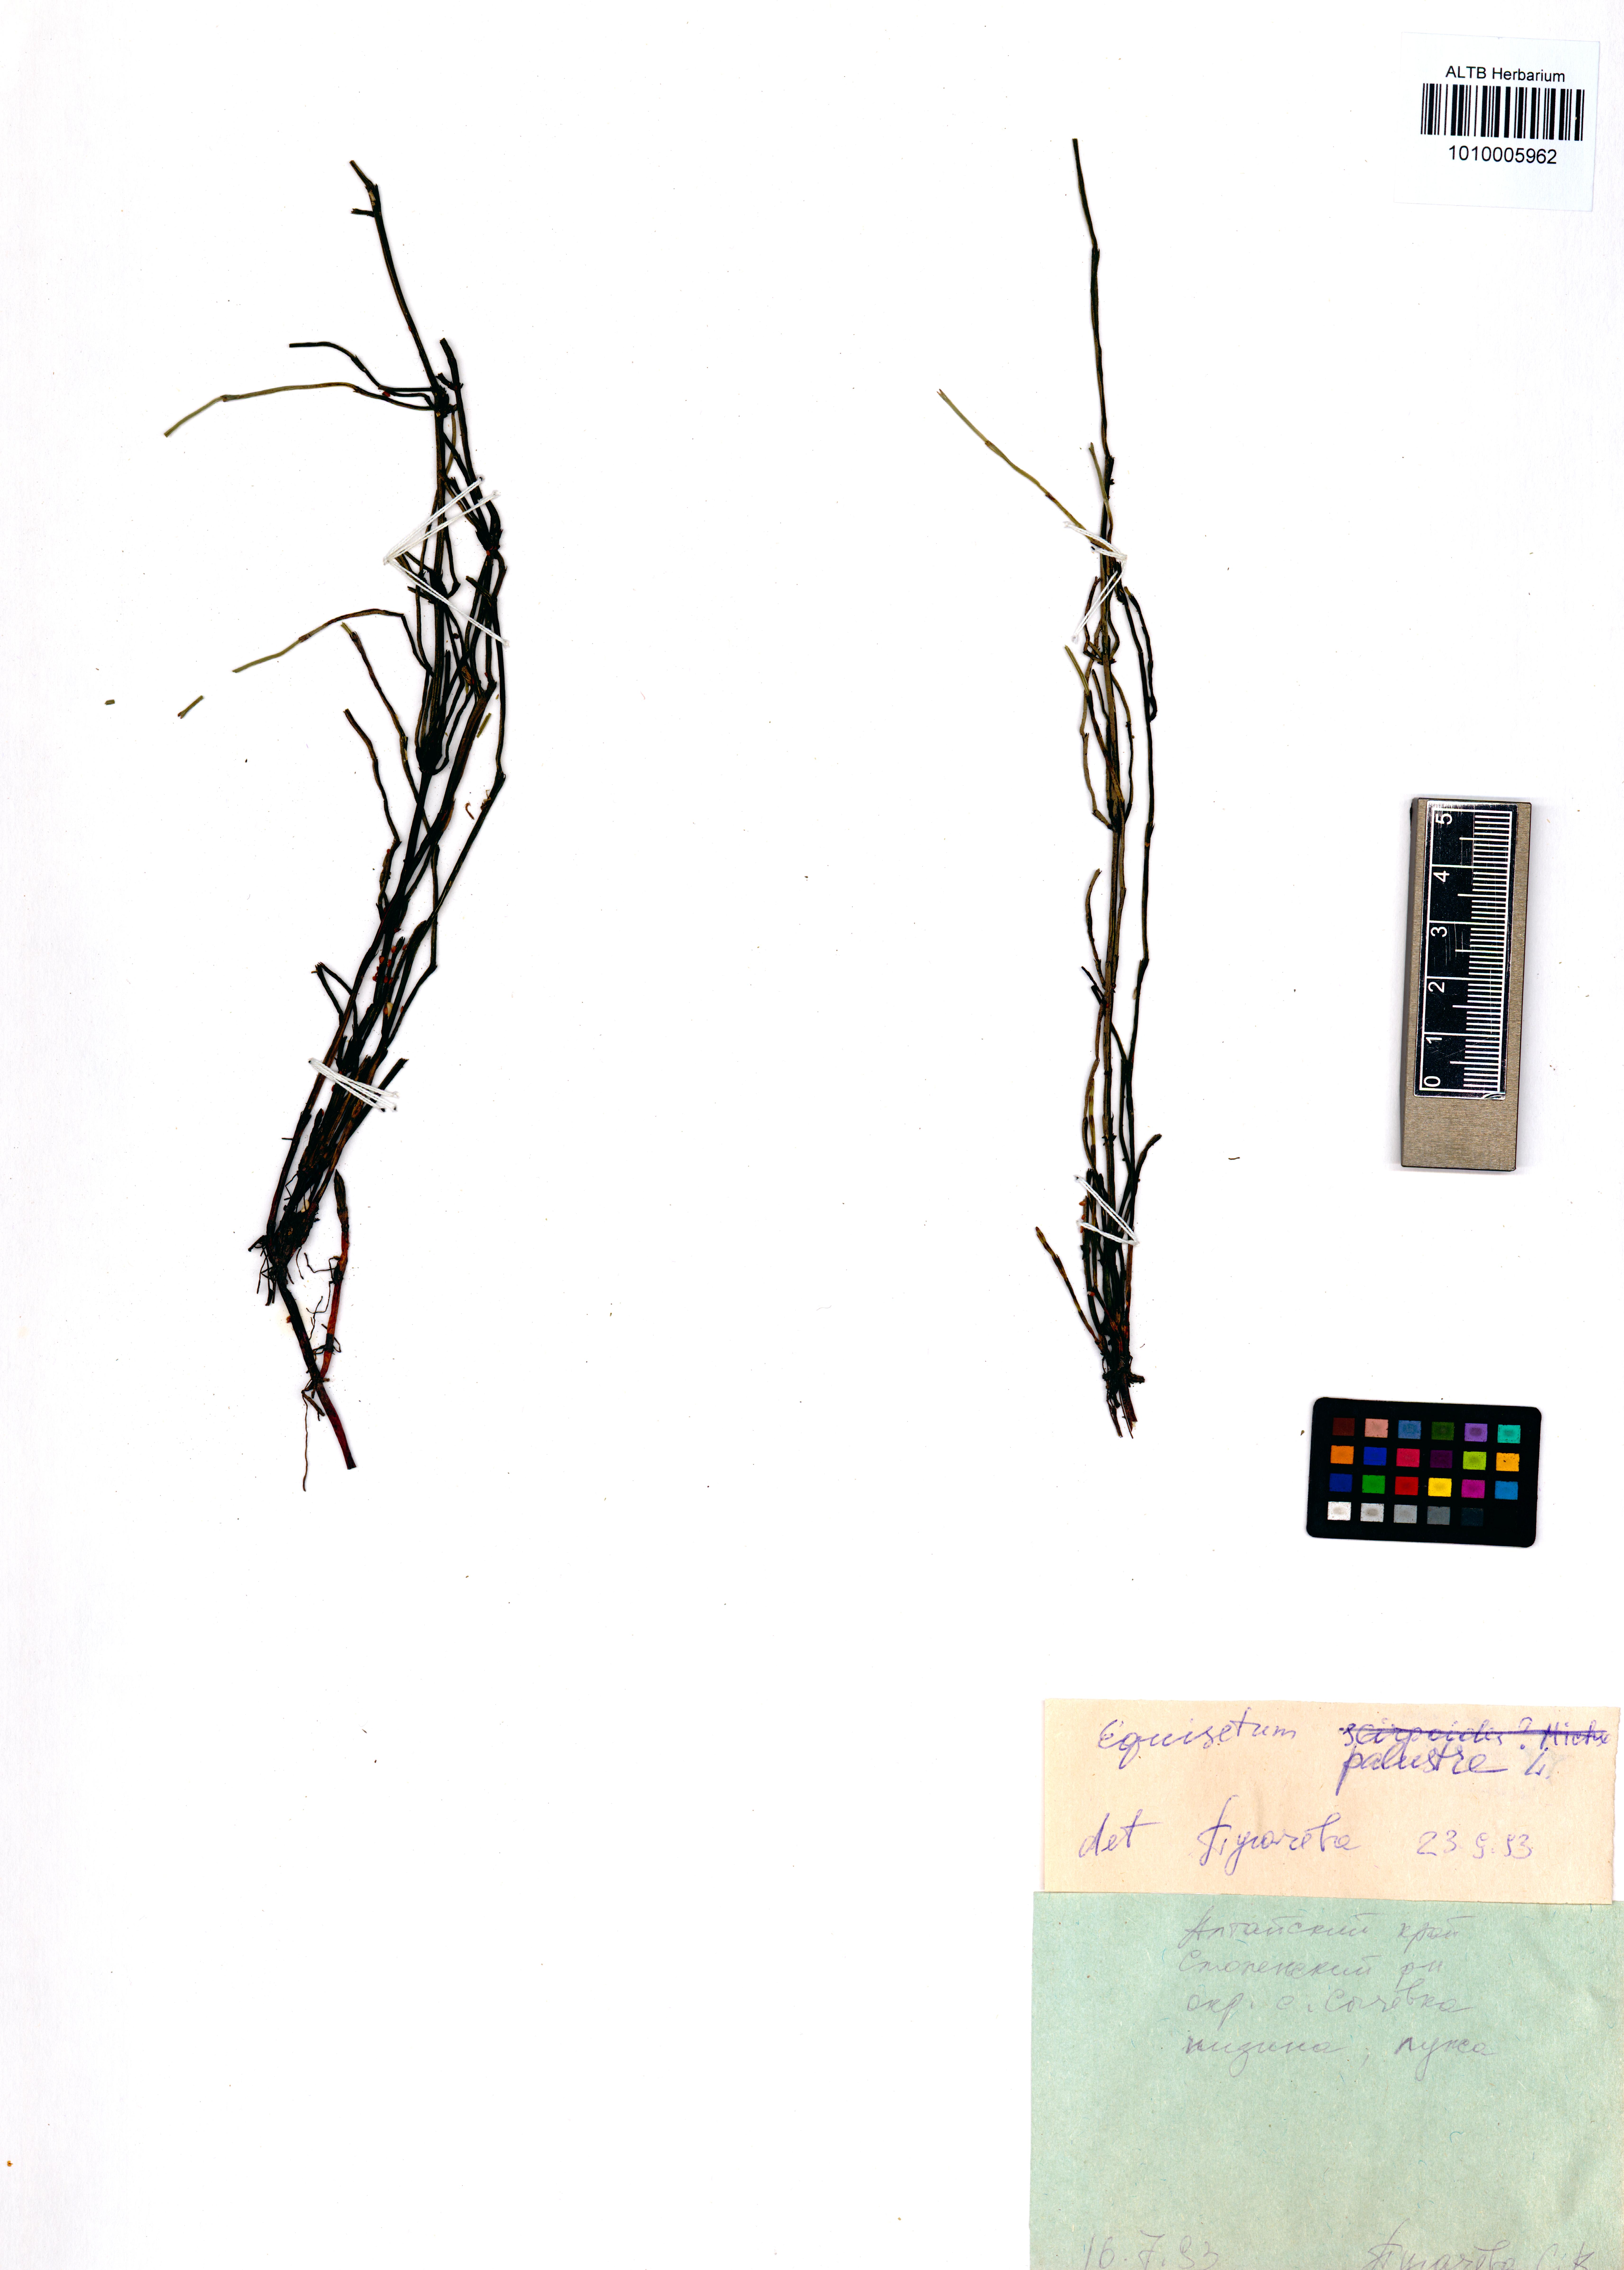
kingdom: Plantae
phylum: Tracheophyta
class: Polypodiopsida
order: Equisetales
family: Equisetaceae
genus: Equisetum
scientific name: Equisetum palustre
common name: Marsh horsetail
